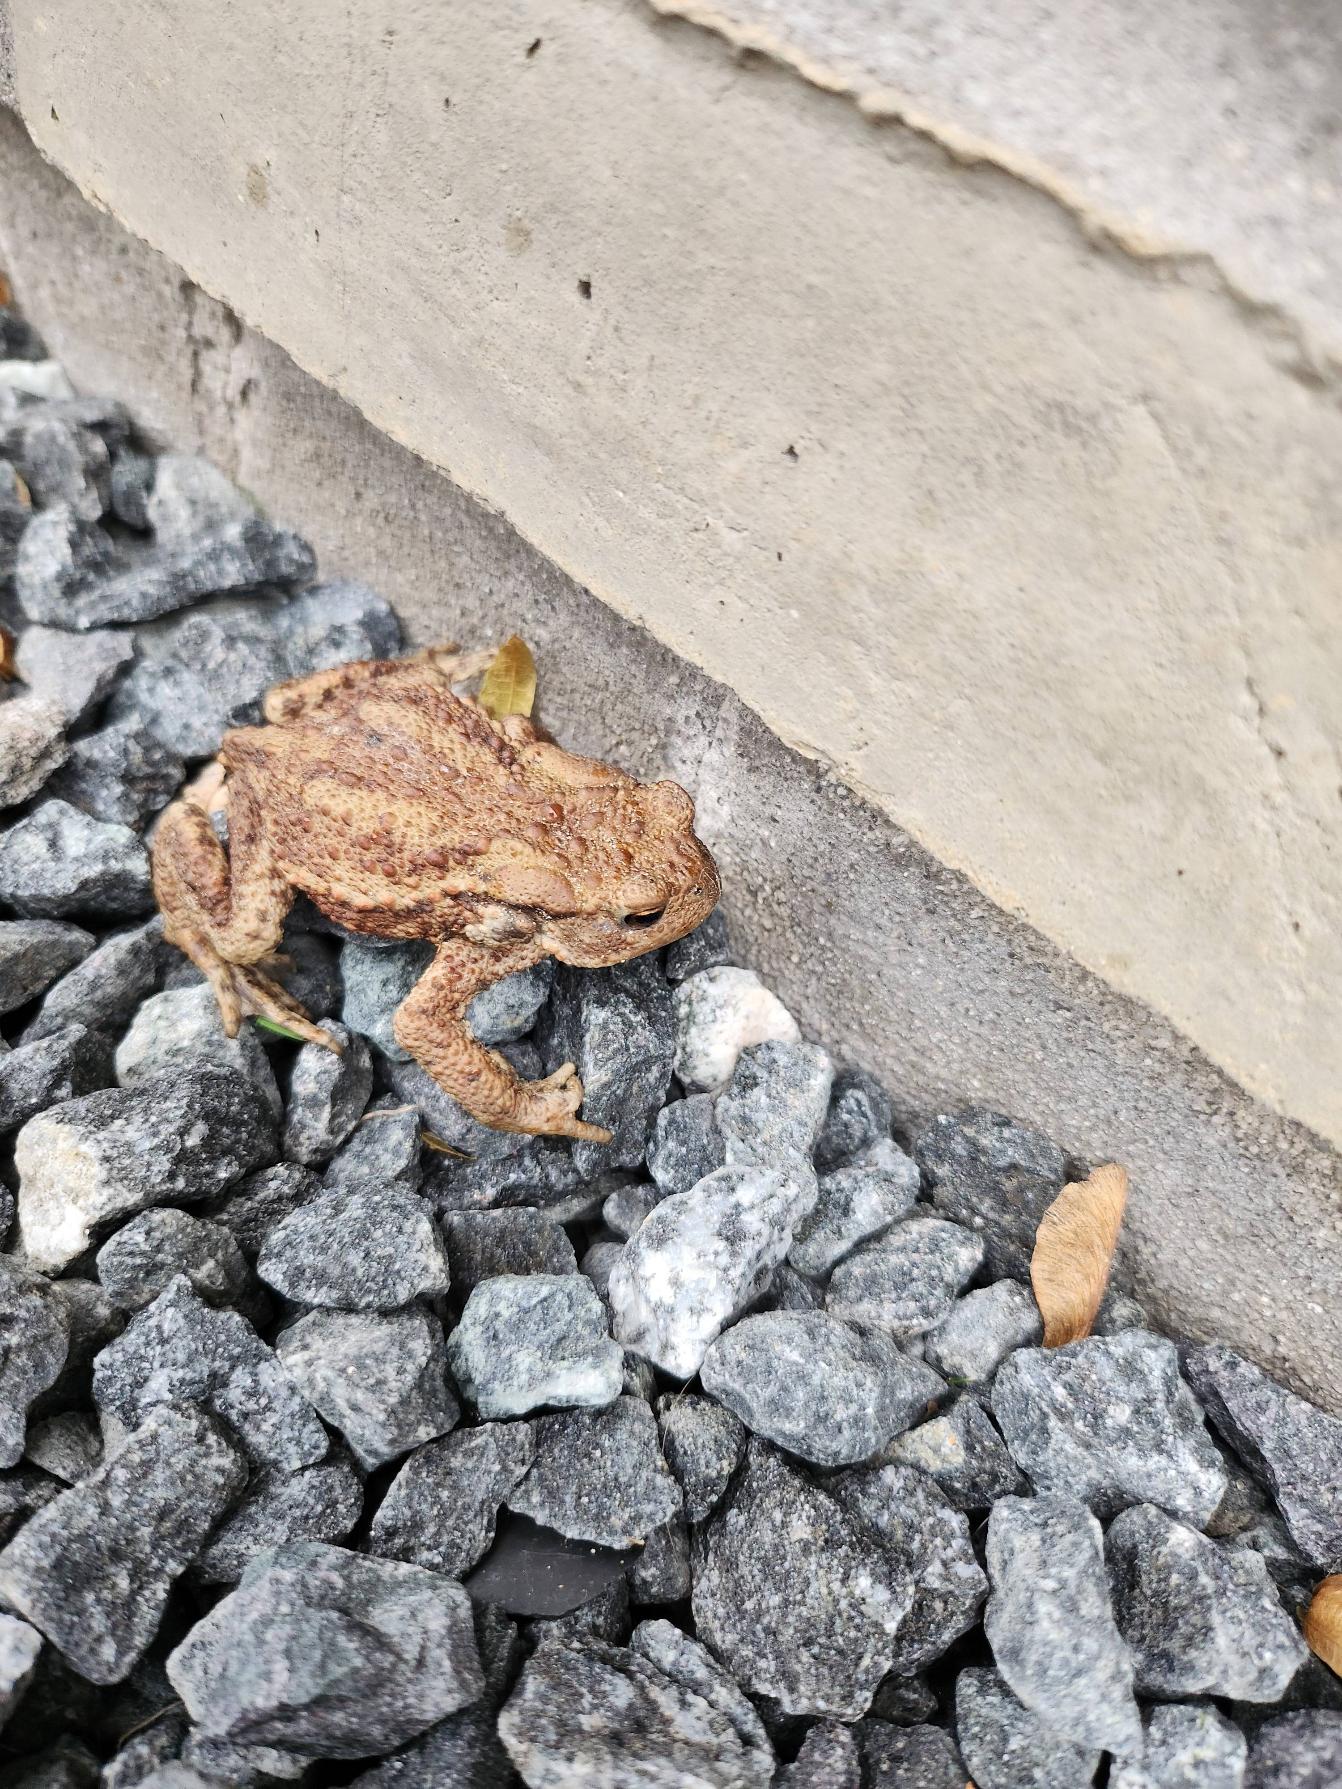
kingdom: Animalia
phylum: Chordata
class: Amphibia
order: Anura
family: Bufonidae
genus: Bufo
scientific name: Bufo bufo
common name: Skrubtudse
